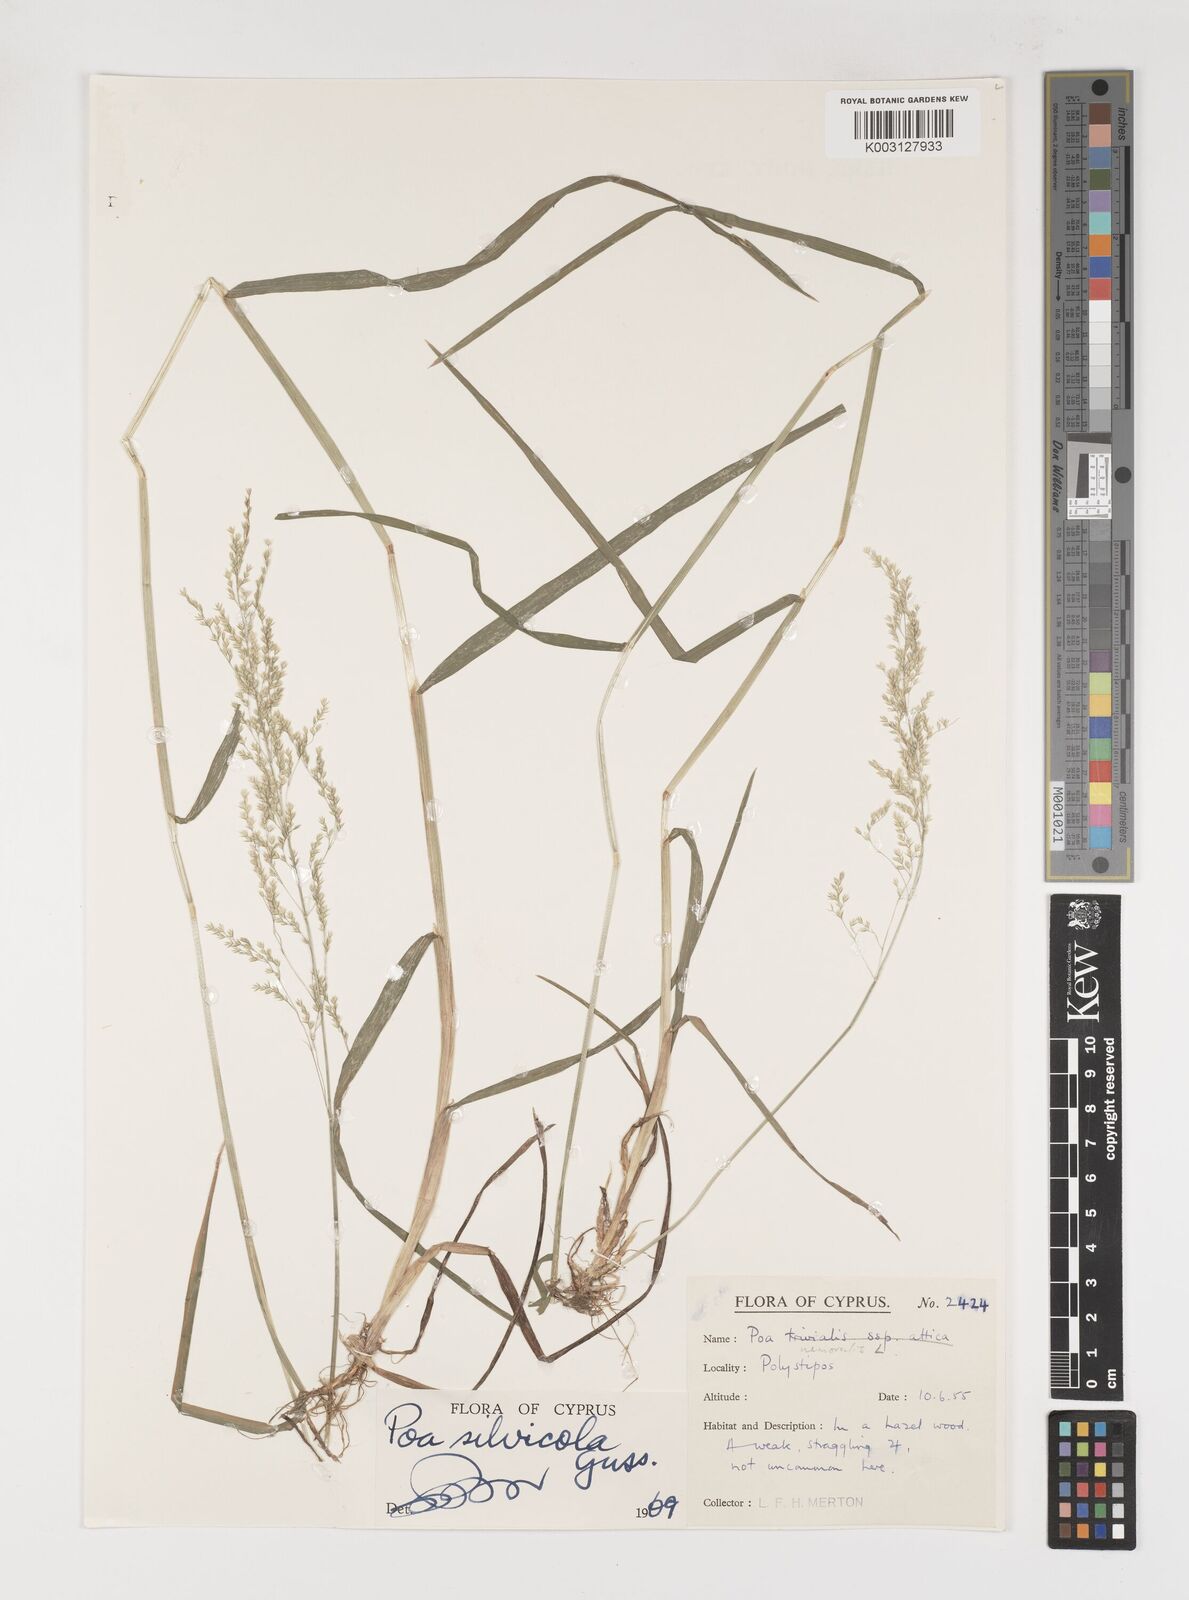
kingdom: Plantae
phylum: Tracheophyta
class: Liliopsida
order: Poales
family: Poaceae
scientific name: Poaceae
